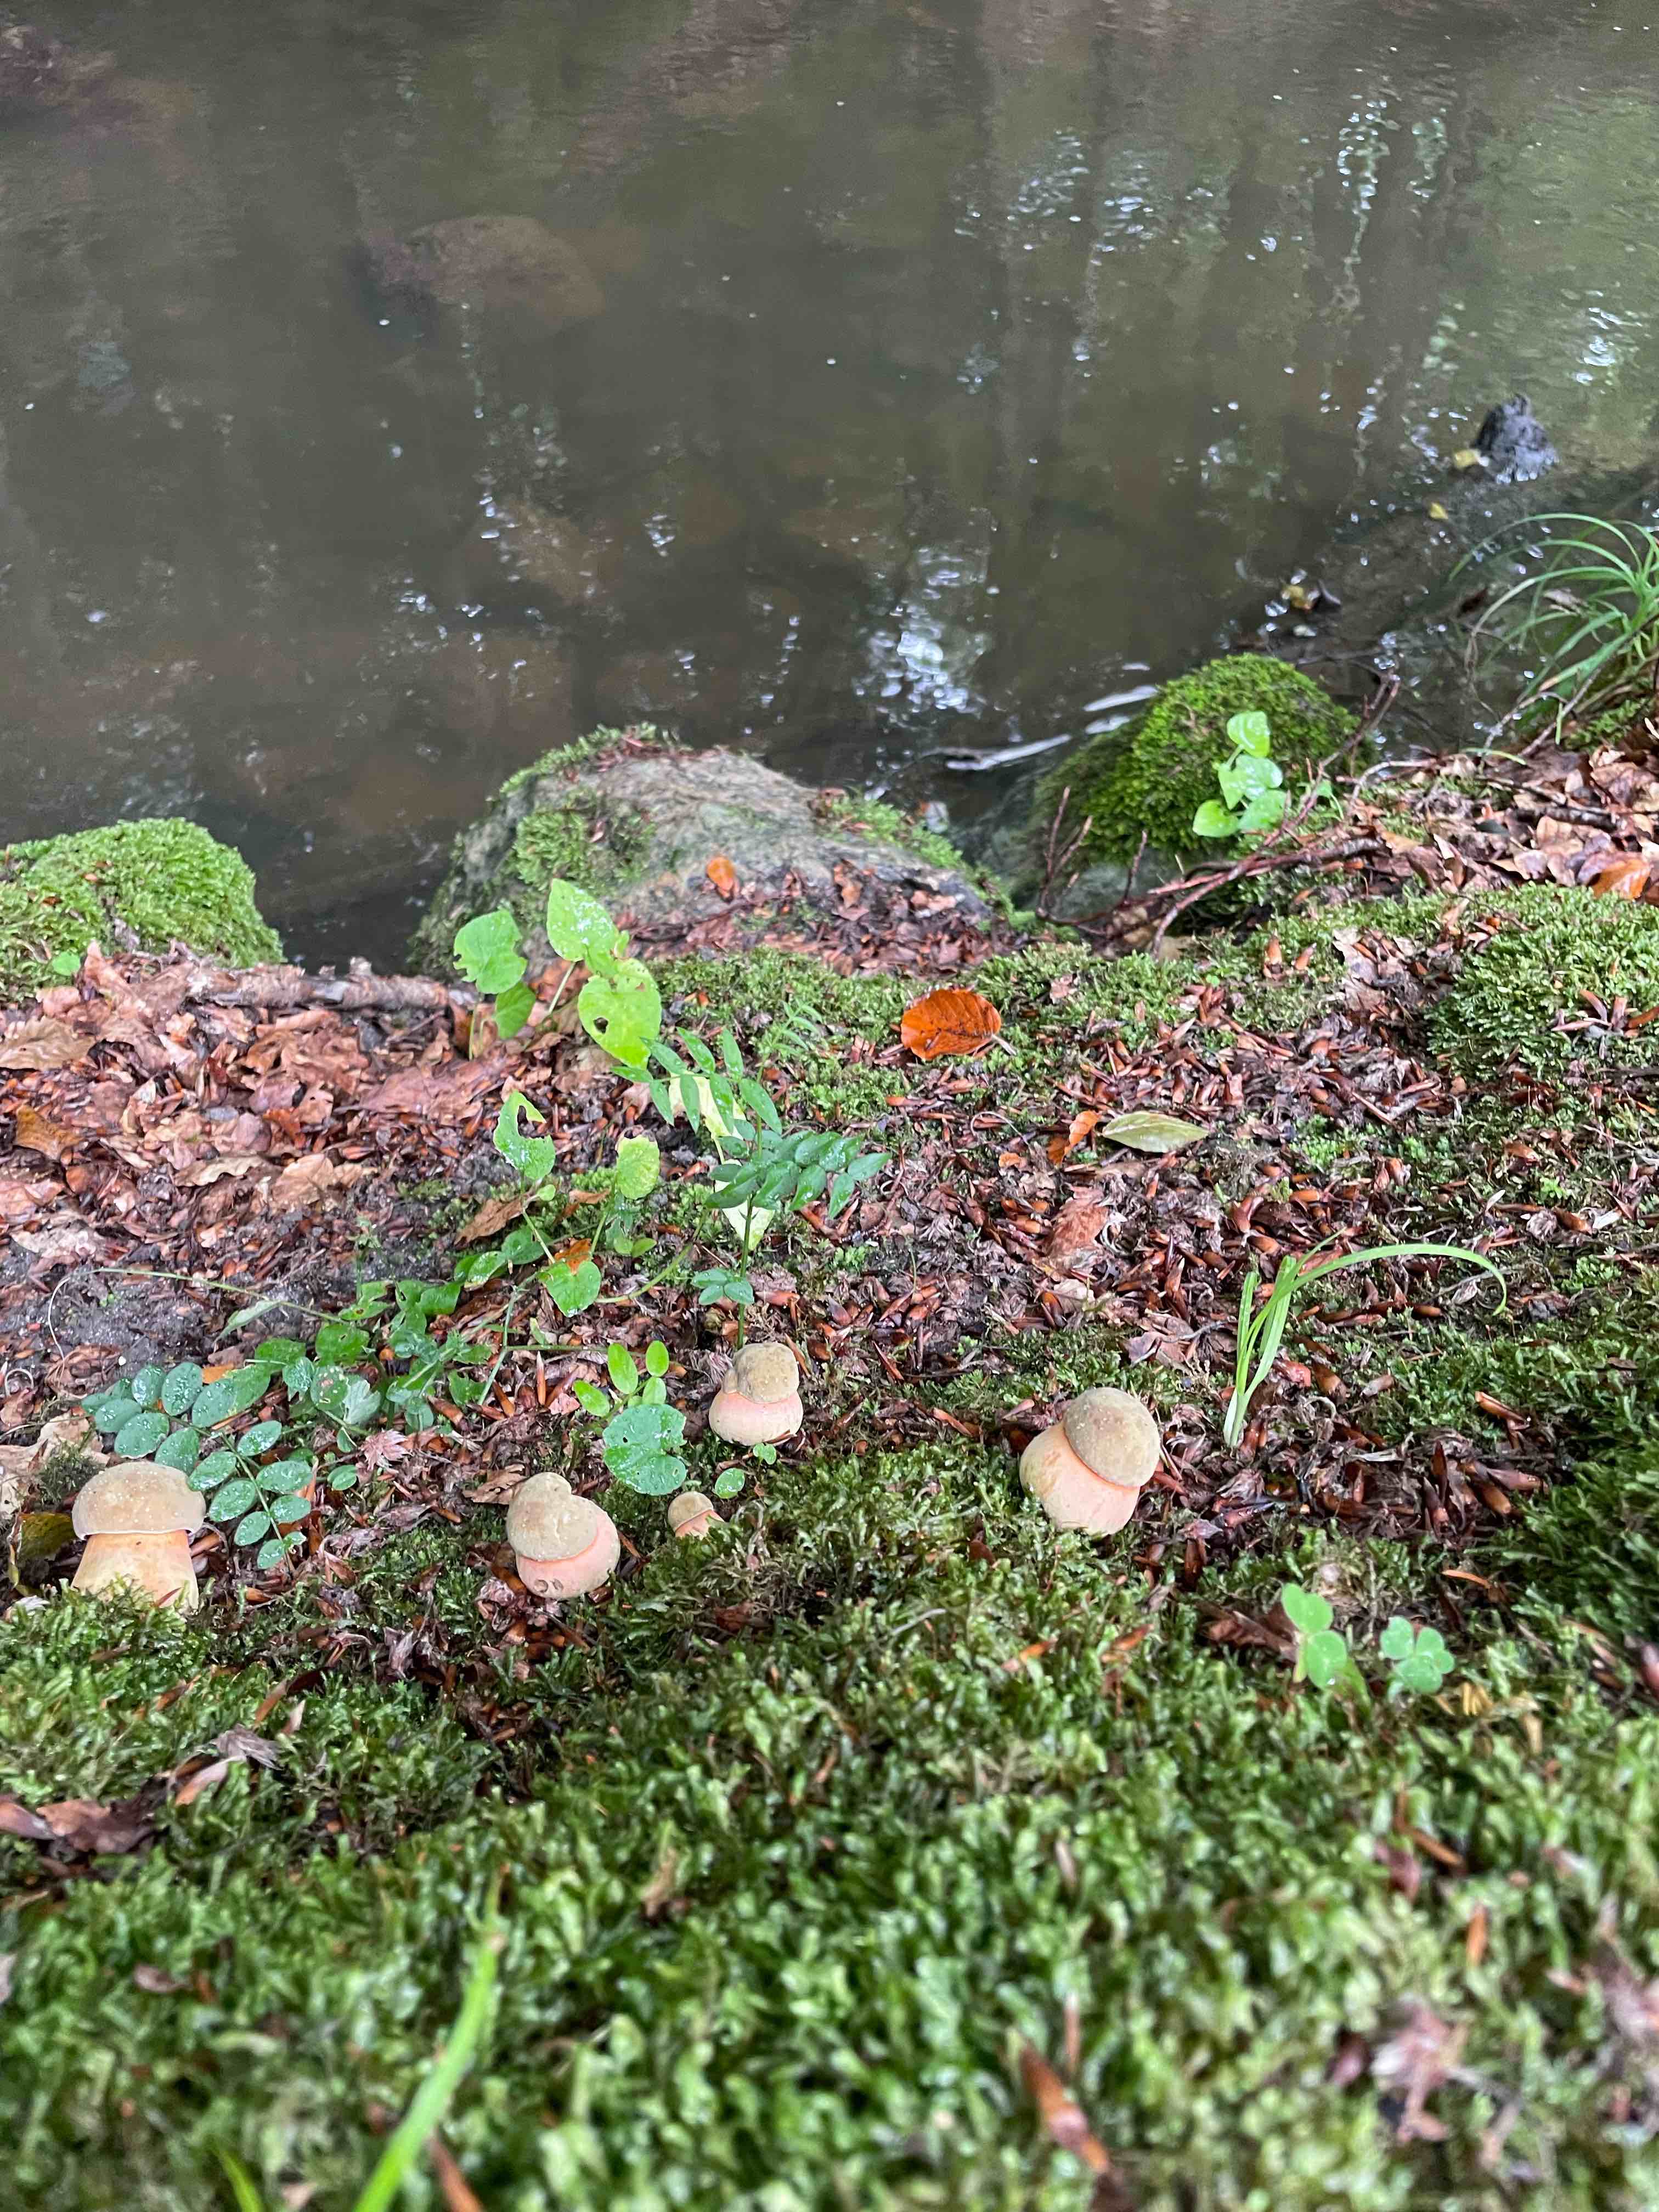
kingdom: Fungi
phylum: Basidiomycota
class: Agaricomycetes
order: Boletales
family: Boletaceae
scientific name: Boletaceae
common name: rørhatfamilien
